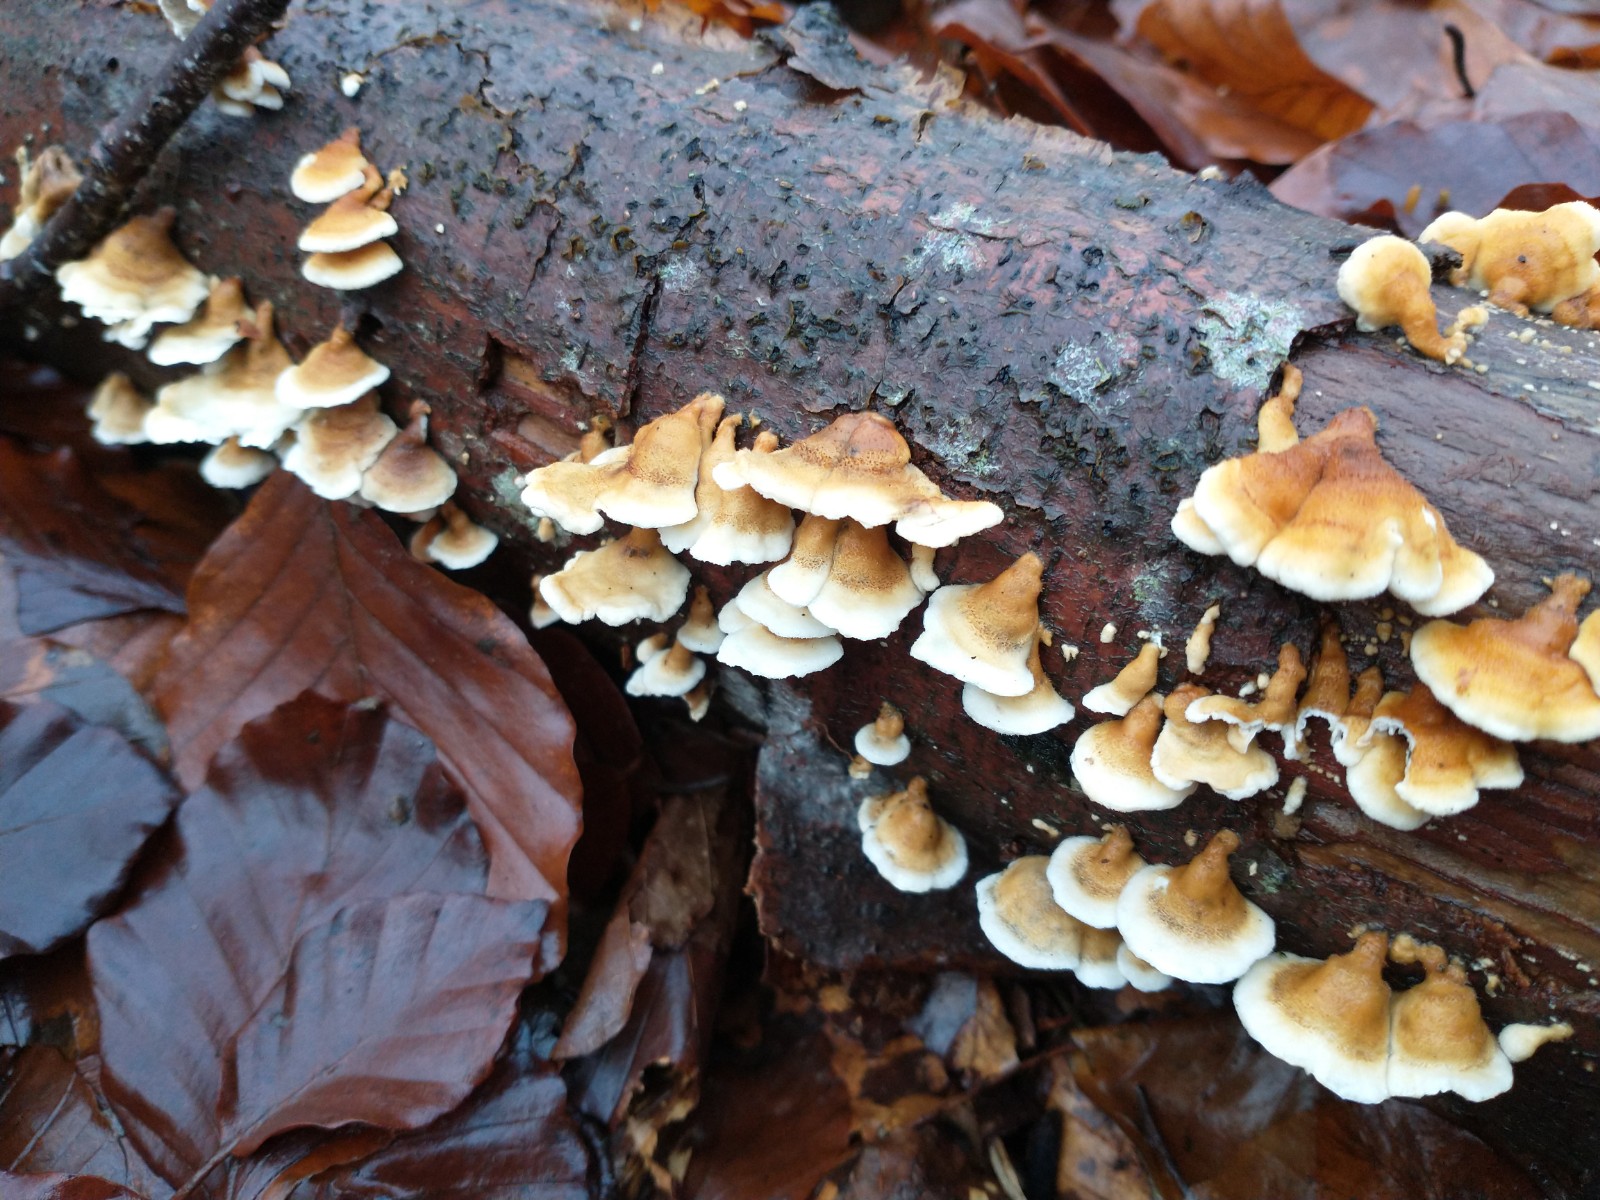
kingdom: Fungi
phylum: Basidiomycota
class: Agaricomycetes
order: Amylocorticiales
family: Amylocorticiaceae
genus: Plicaturopsis
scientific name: Plicaturopsis crispa
